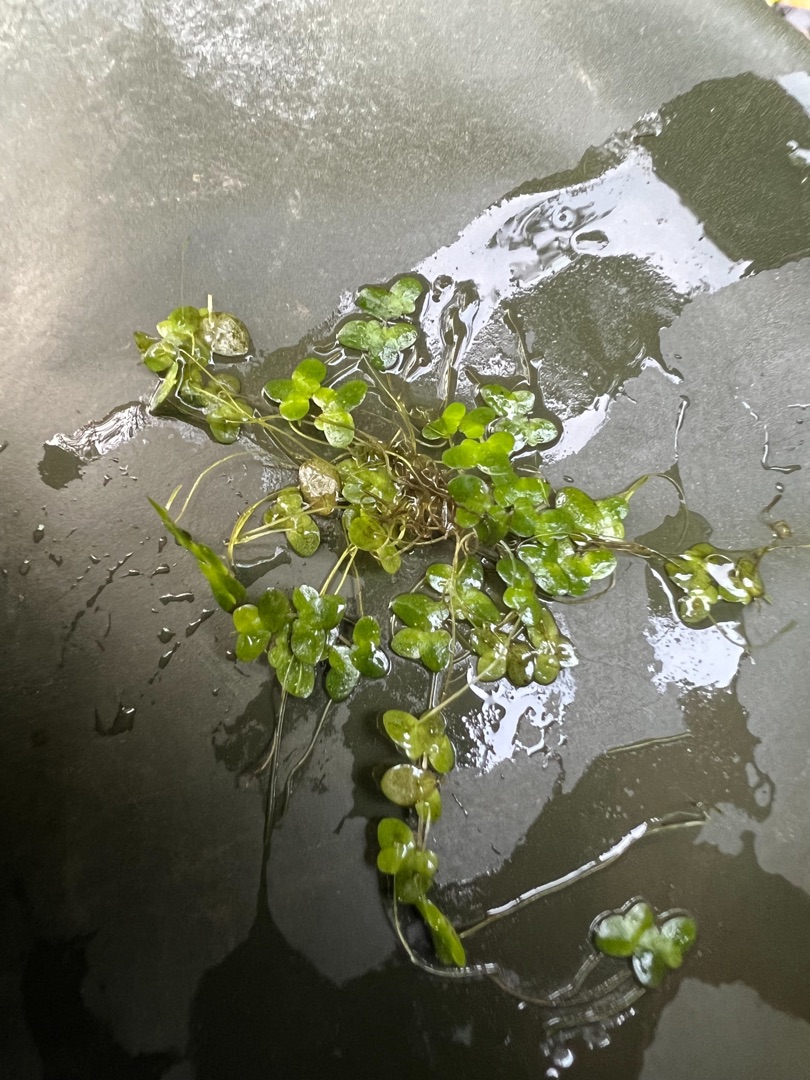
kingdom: Plantae
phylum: Tracheophyta
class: Liliopsida
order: Alismatales
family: Araceae
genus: Lemna
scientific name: Lemna minor
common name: Liden andemad
